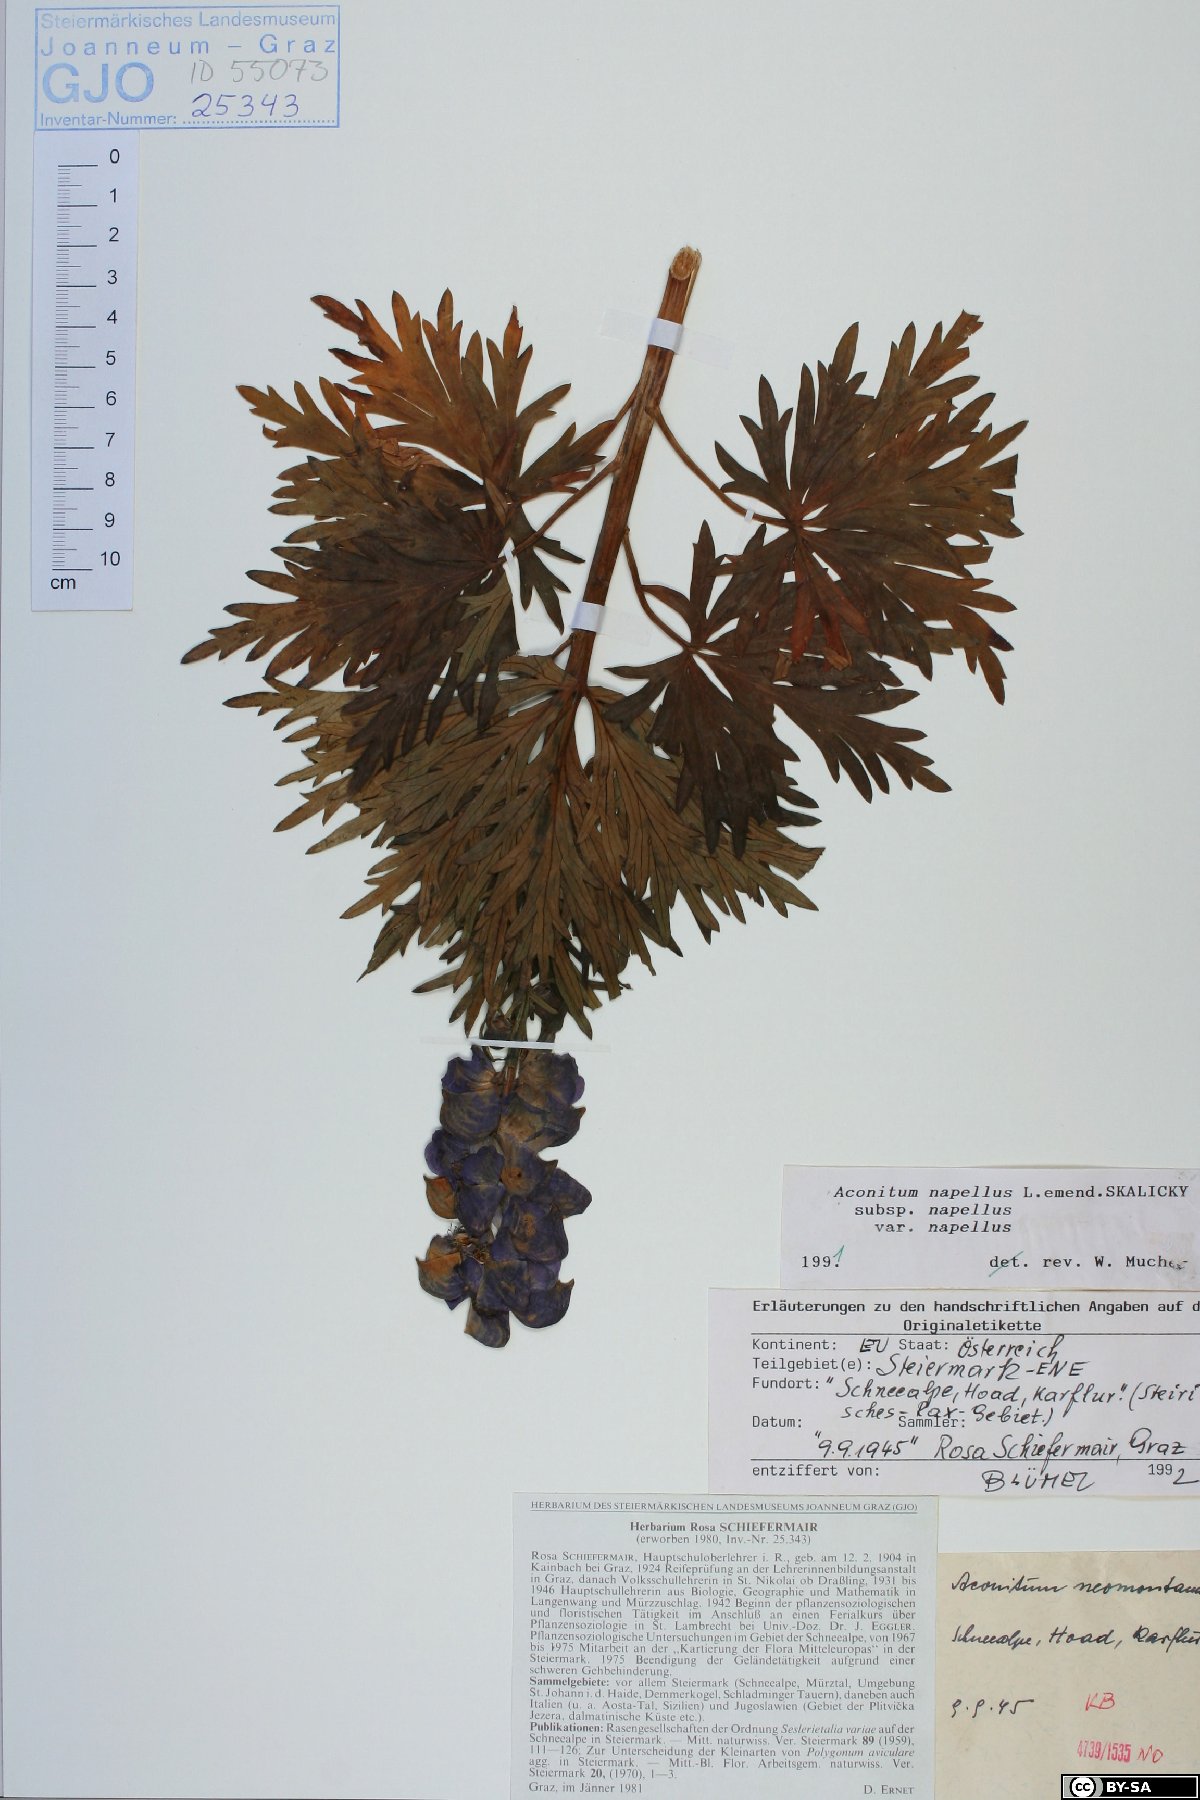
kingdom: Plantae
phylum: Tracheophyta
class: Magnoliopsida
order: Ranunculales
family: Ranunculaceae
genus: Aconitum
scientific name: Aconitum napellus
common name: Garden monkshood
